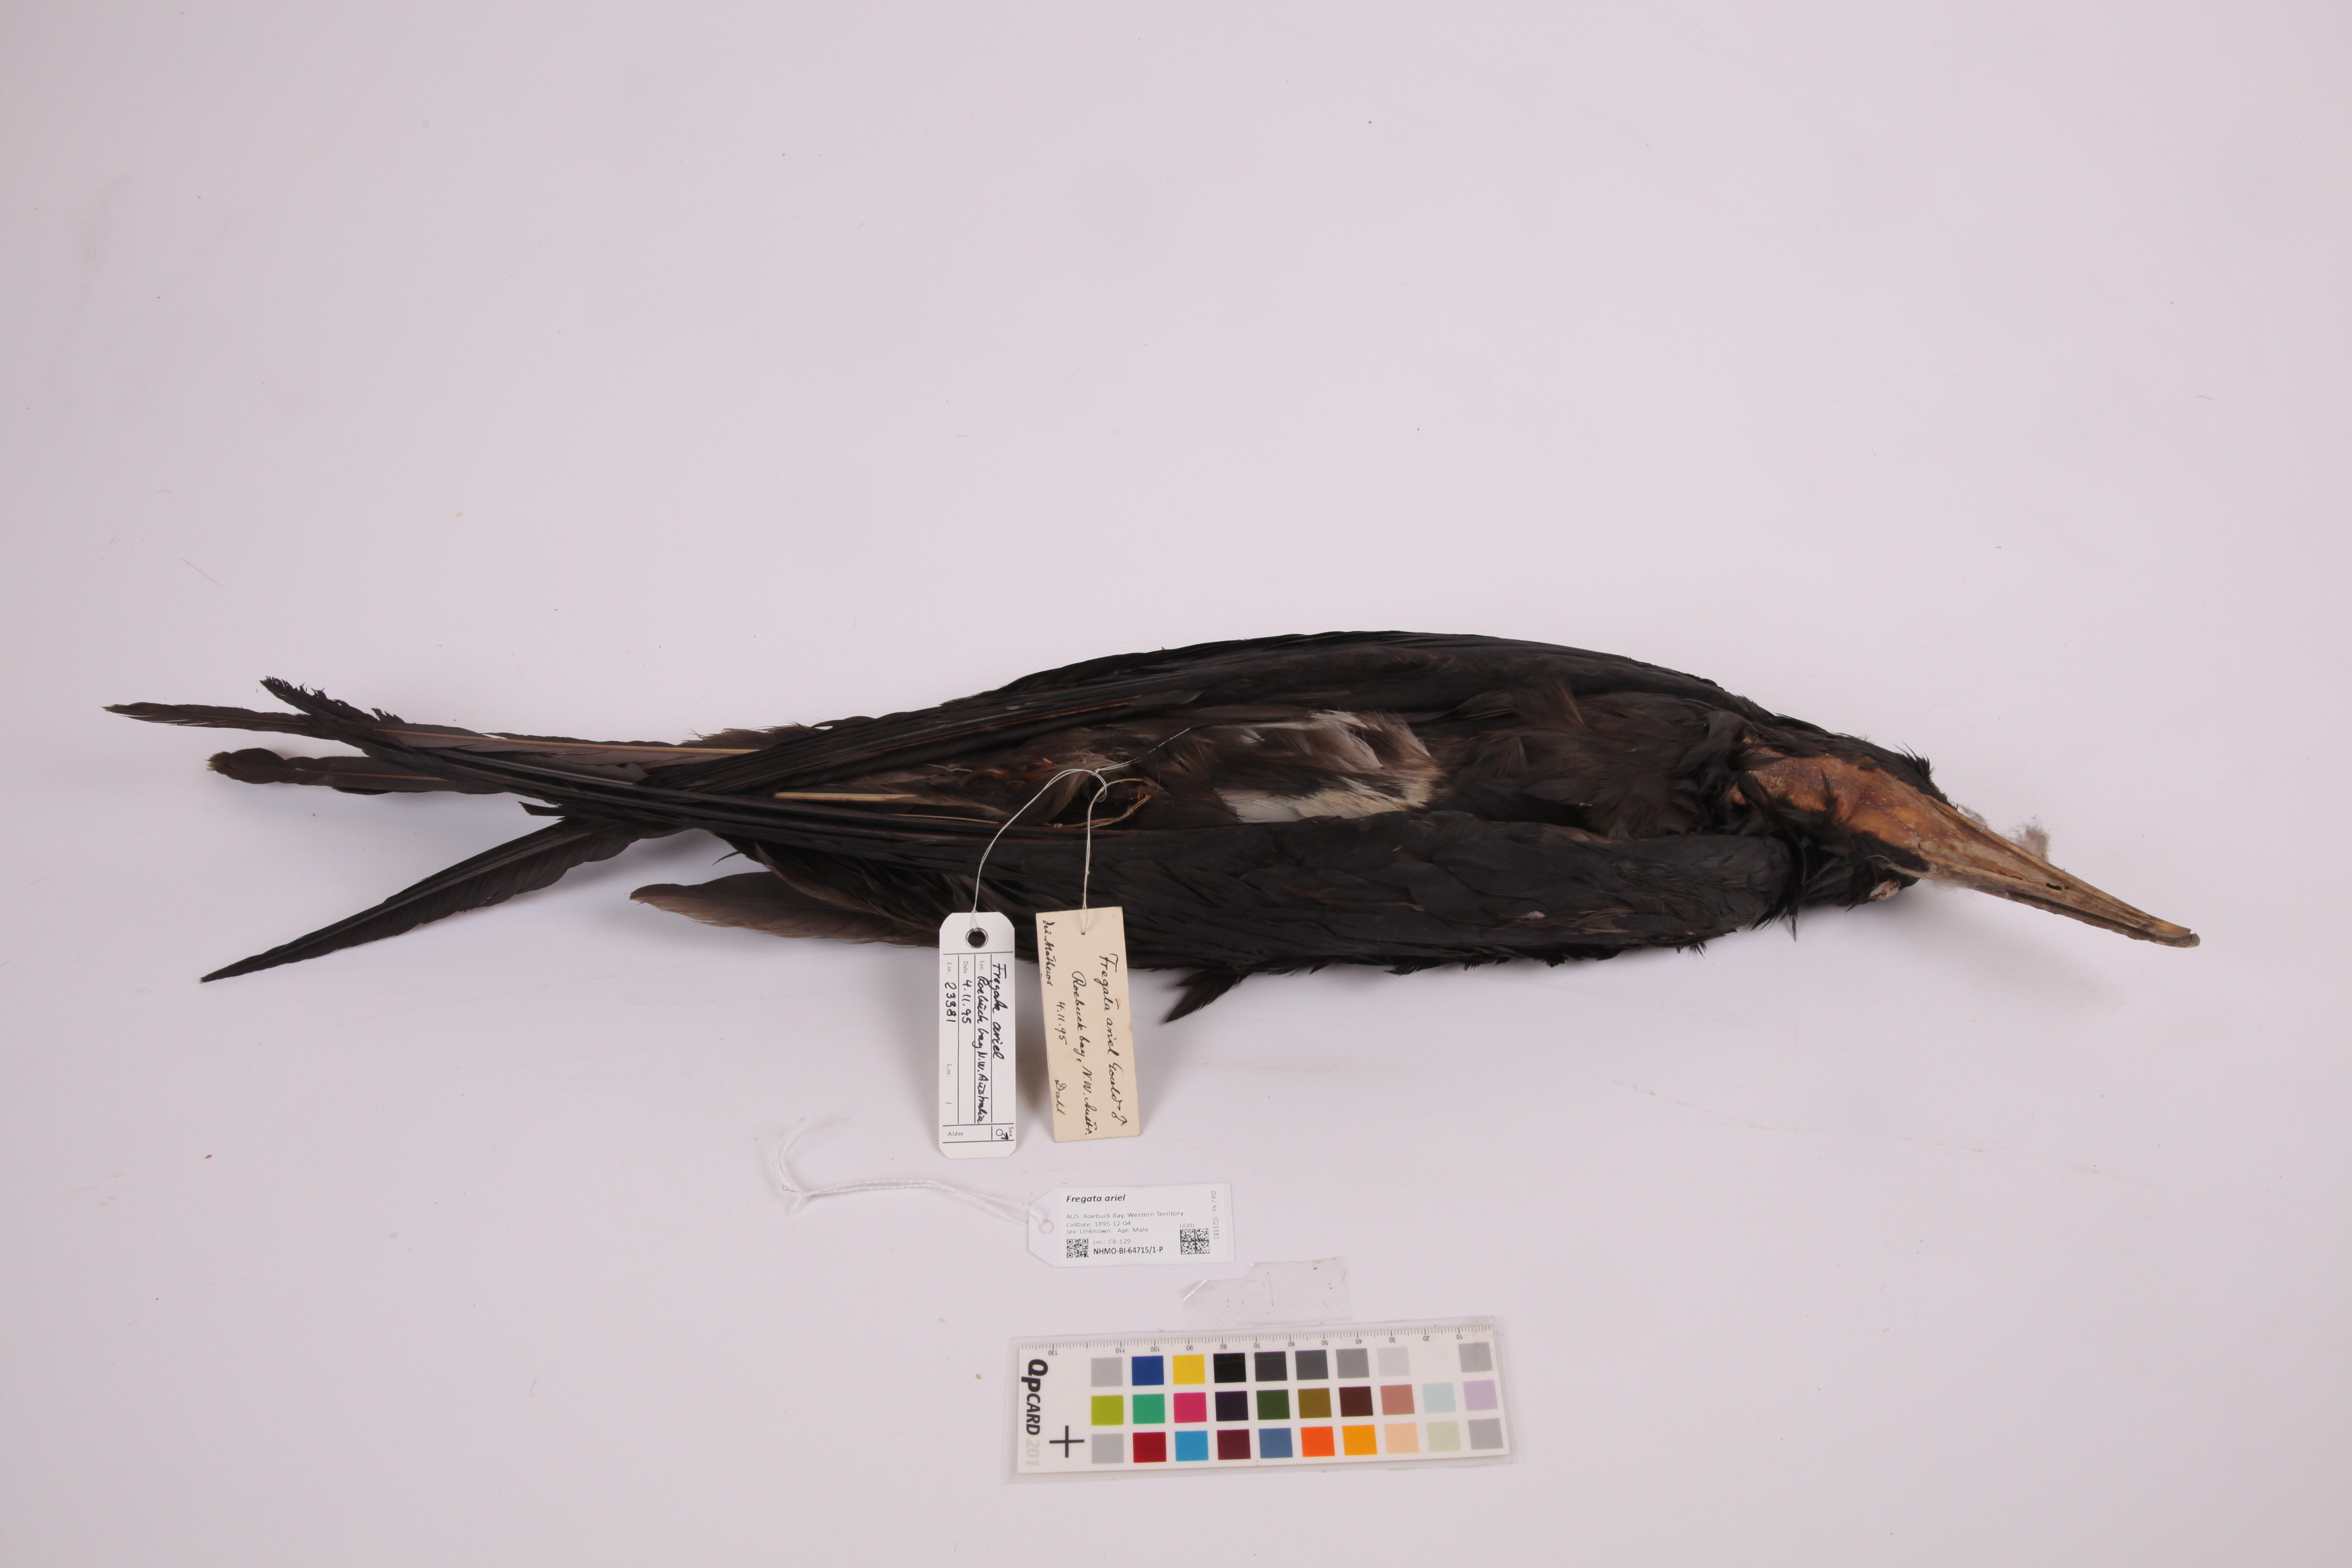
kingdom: Animalia
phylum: Chordata
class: Aves
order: Suliformes
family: Fregatidae
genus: Fregata
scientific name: Fregata ariel
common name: Lesser frigatebird
